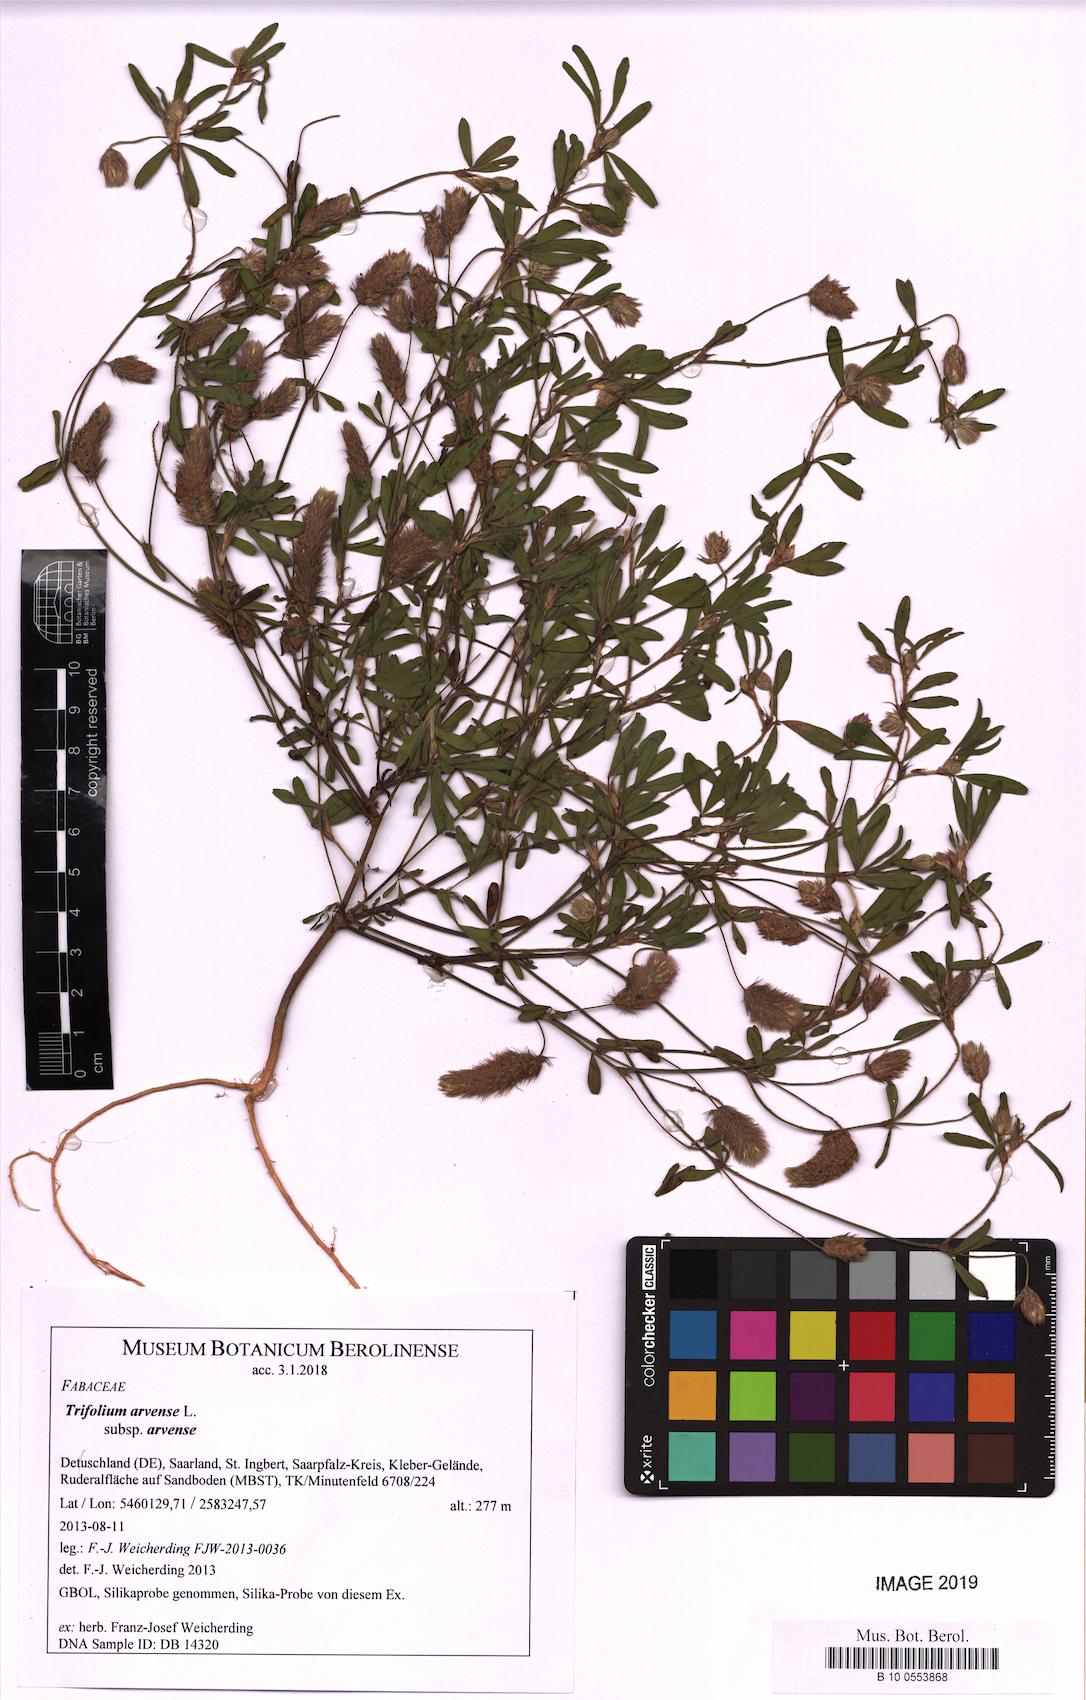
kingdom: Plantae
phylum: Tracheophyta
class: Magnoliopsida
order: Fabales
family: Fabaceae
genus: Trifolium
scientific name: Trifolium arvense
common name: Hare's-foot clover
